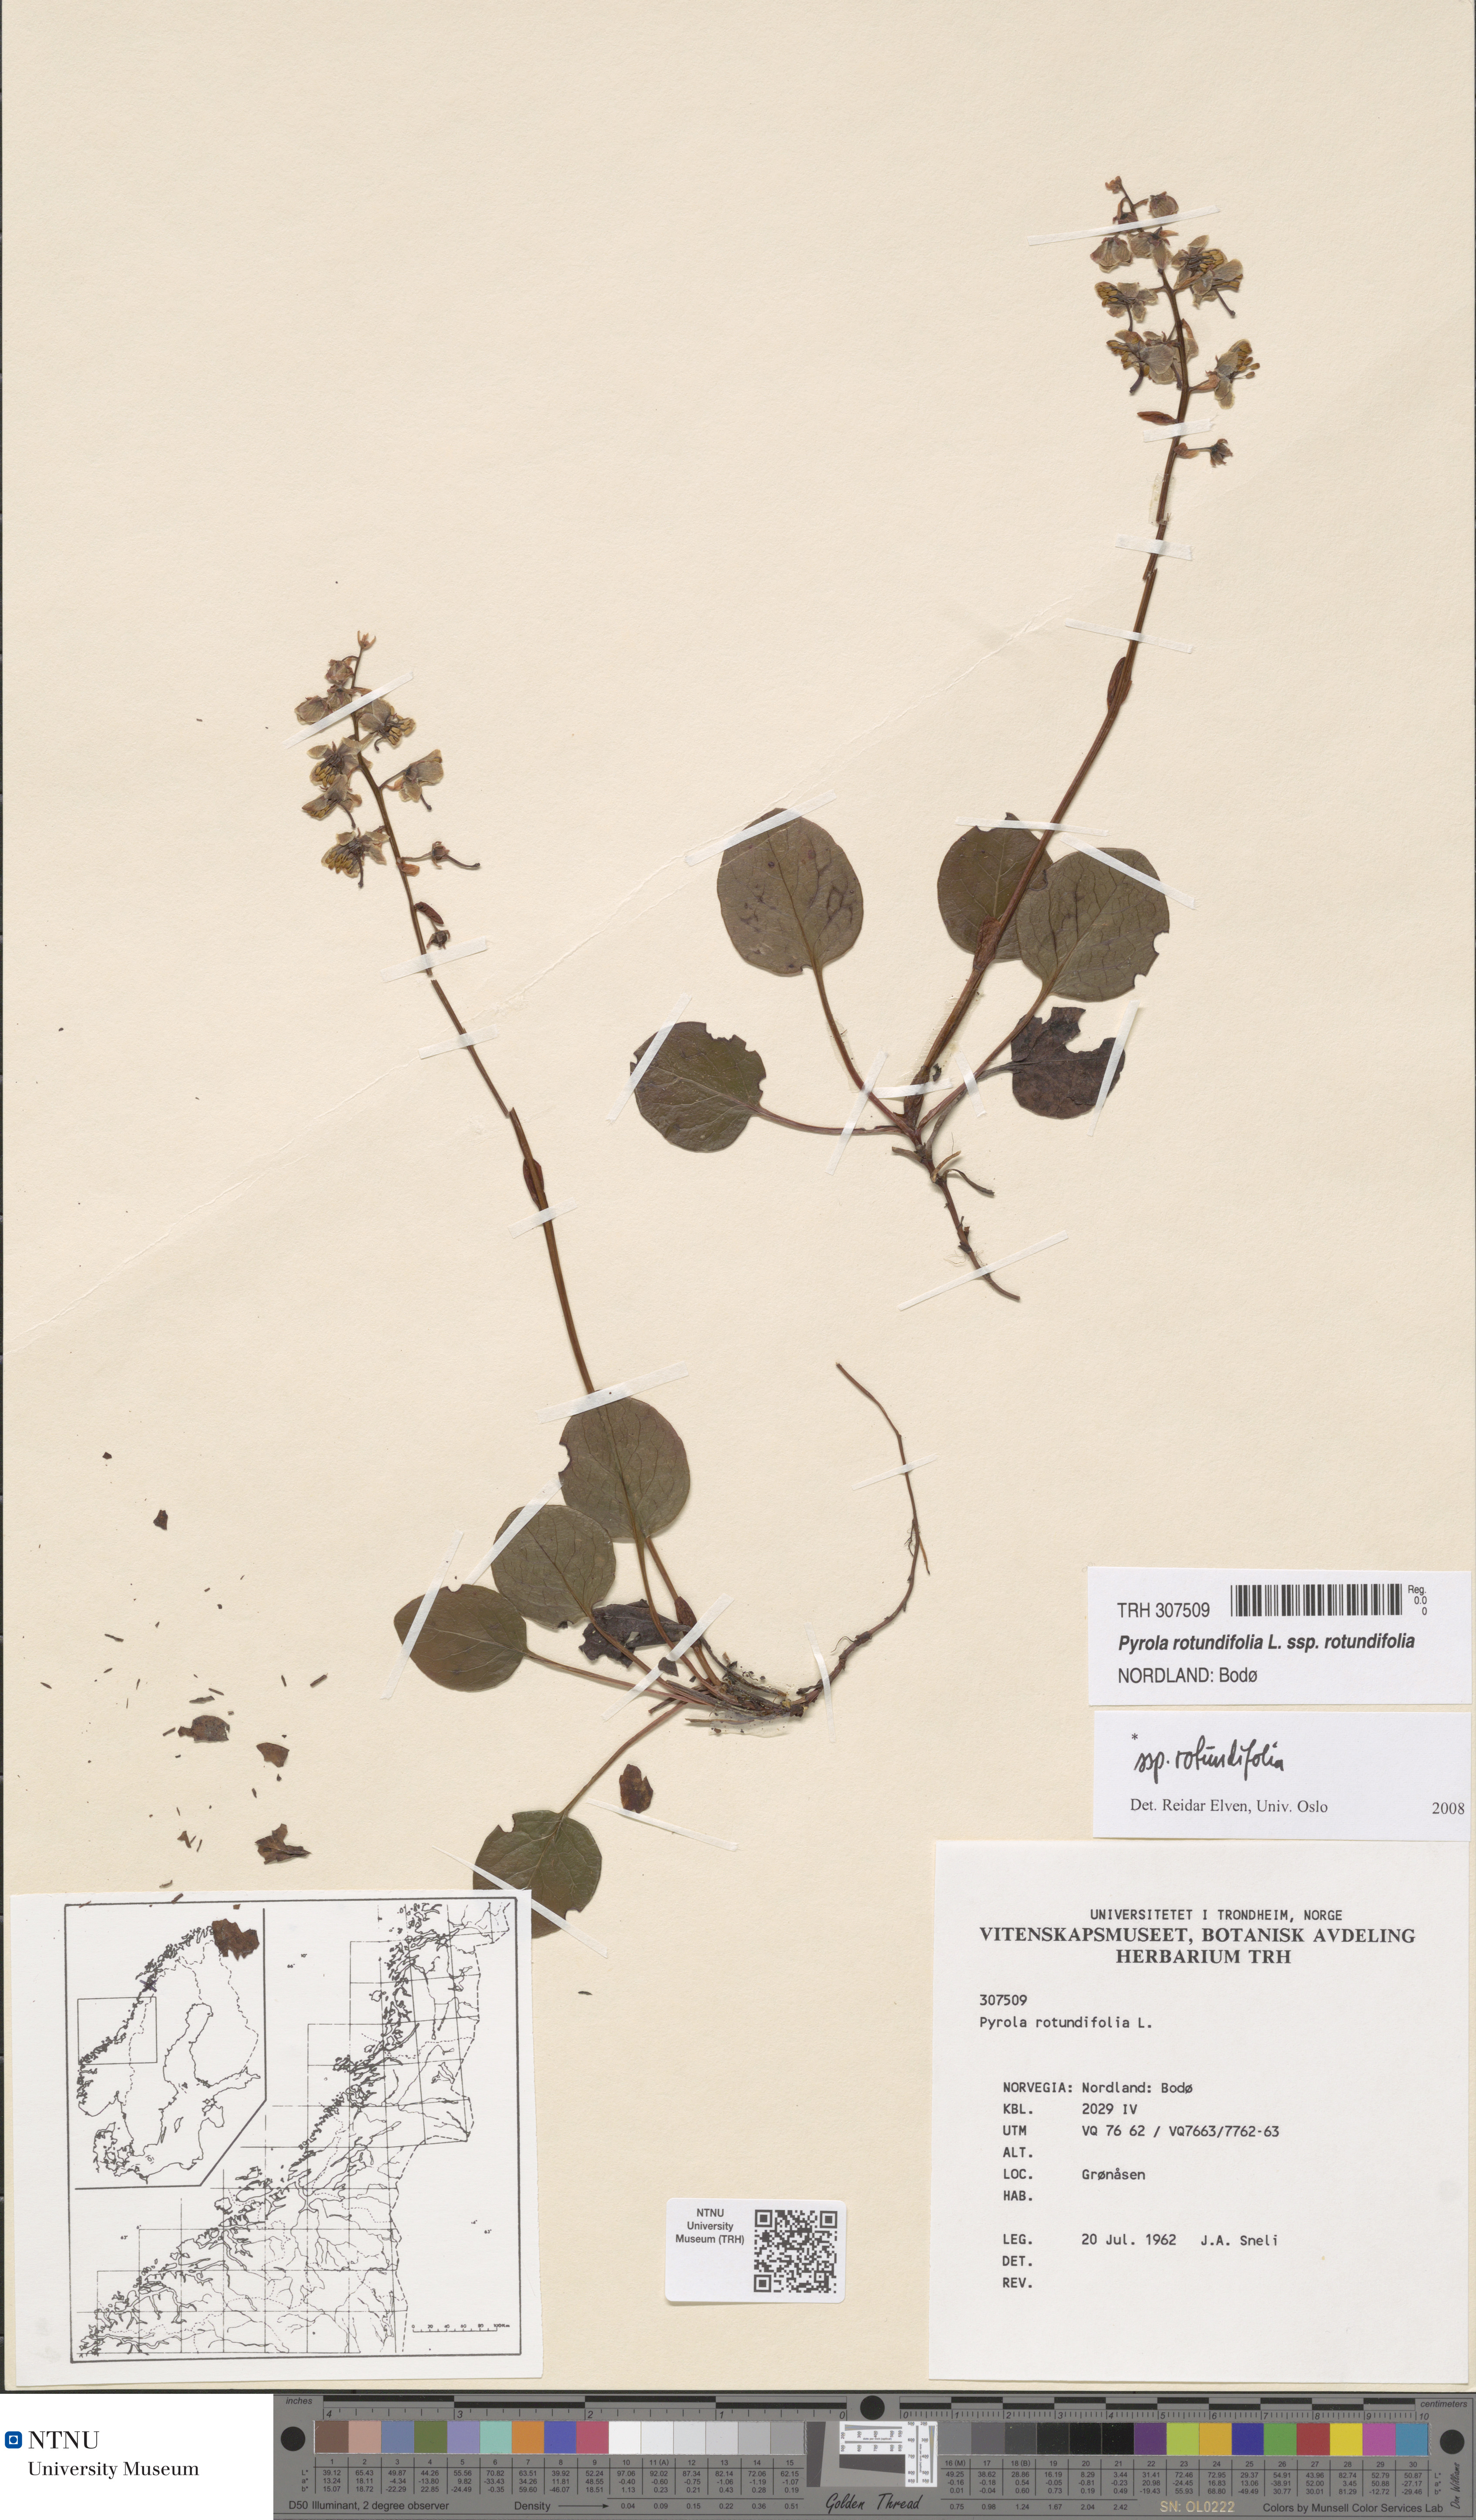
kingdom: Plantae
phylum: Tracheophyta
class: Magnoliopsida
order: Ericales
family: Ericaceae
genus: Pyrola
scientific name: Pyrola rotundifolia
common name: Round-leaved wintergreen
